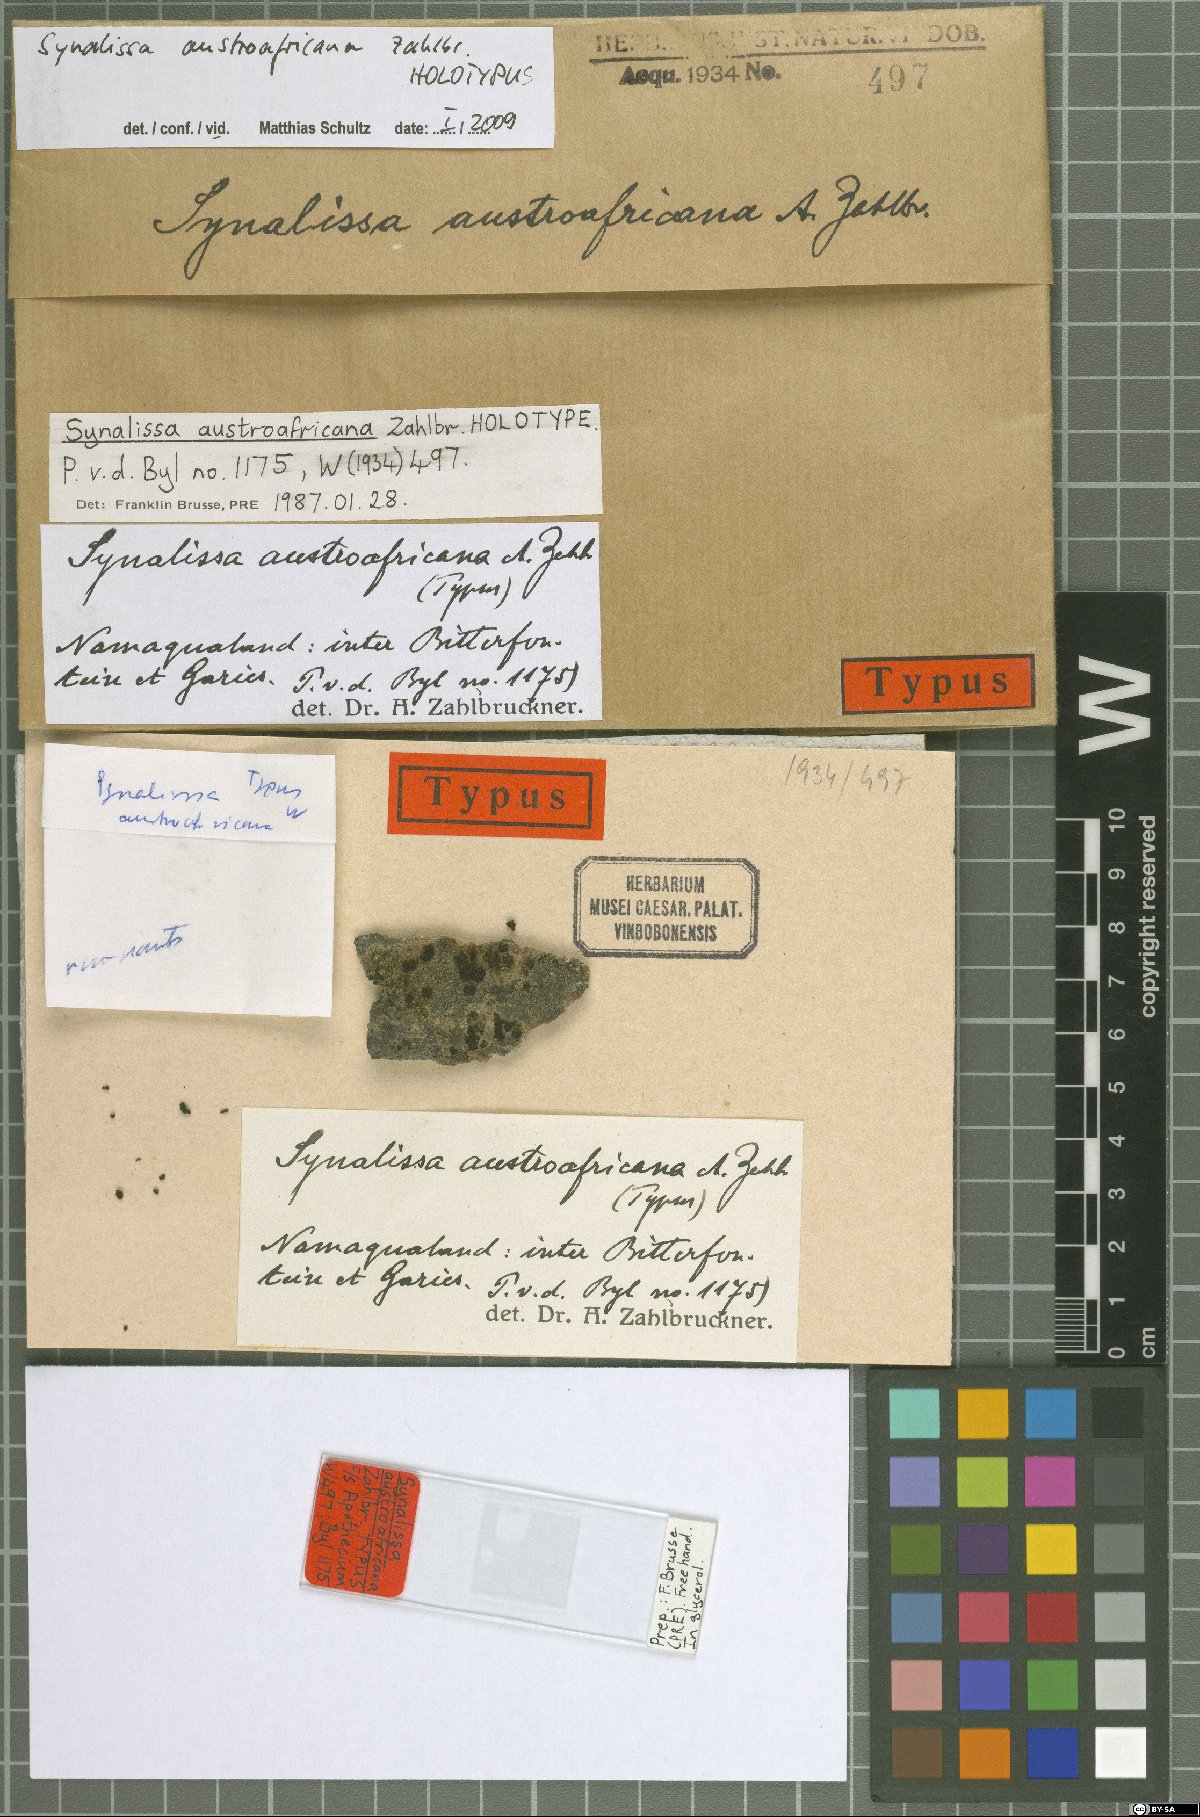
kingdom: Fungi
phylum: Ascomycota
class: Lichinomycetes
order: Lichinales
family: Lichinaceae
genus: Synalissa
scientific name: Synalissa
